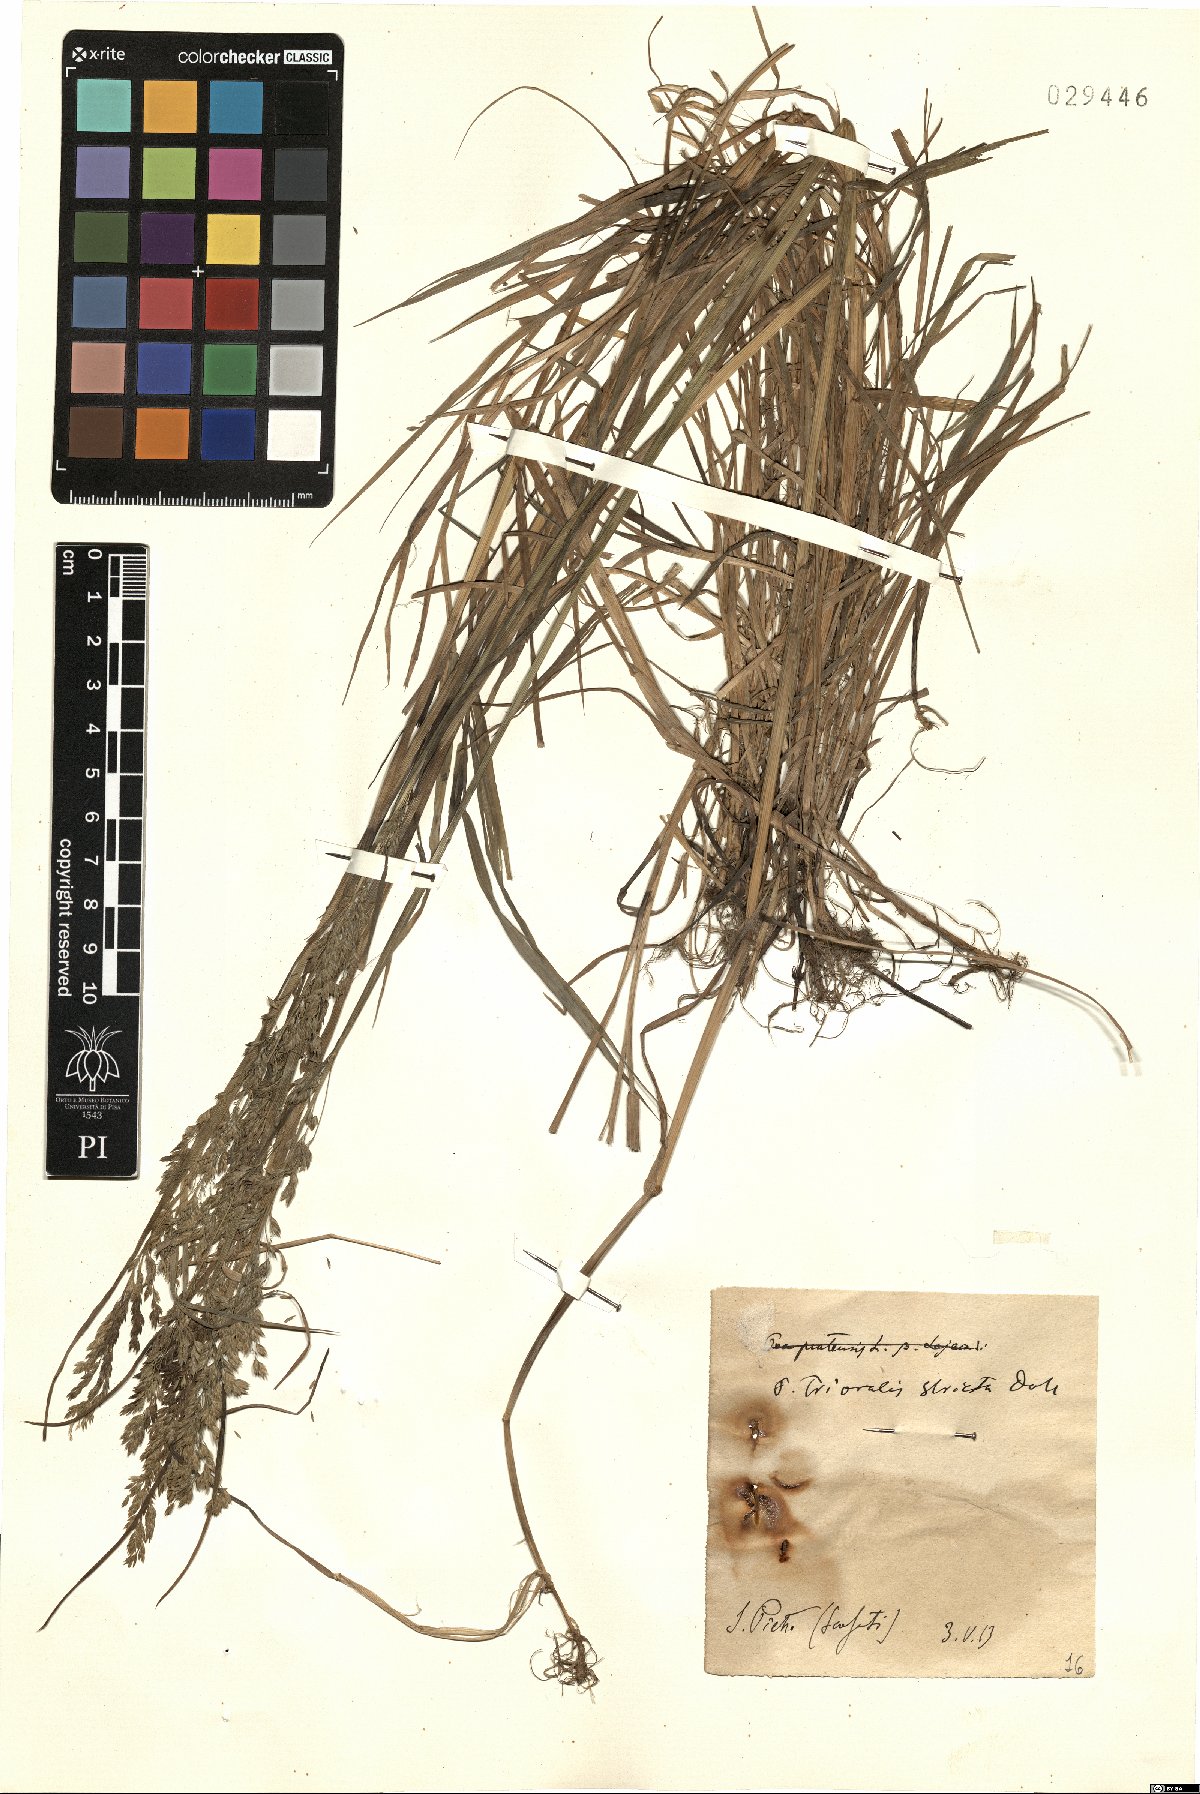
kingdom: Plantae
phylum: Tracheophyta
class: Liliopsida
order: Poales
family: Poaceae
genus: Poa
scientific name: Poa trivialis
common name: Rough bluegrass
